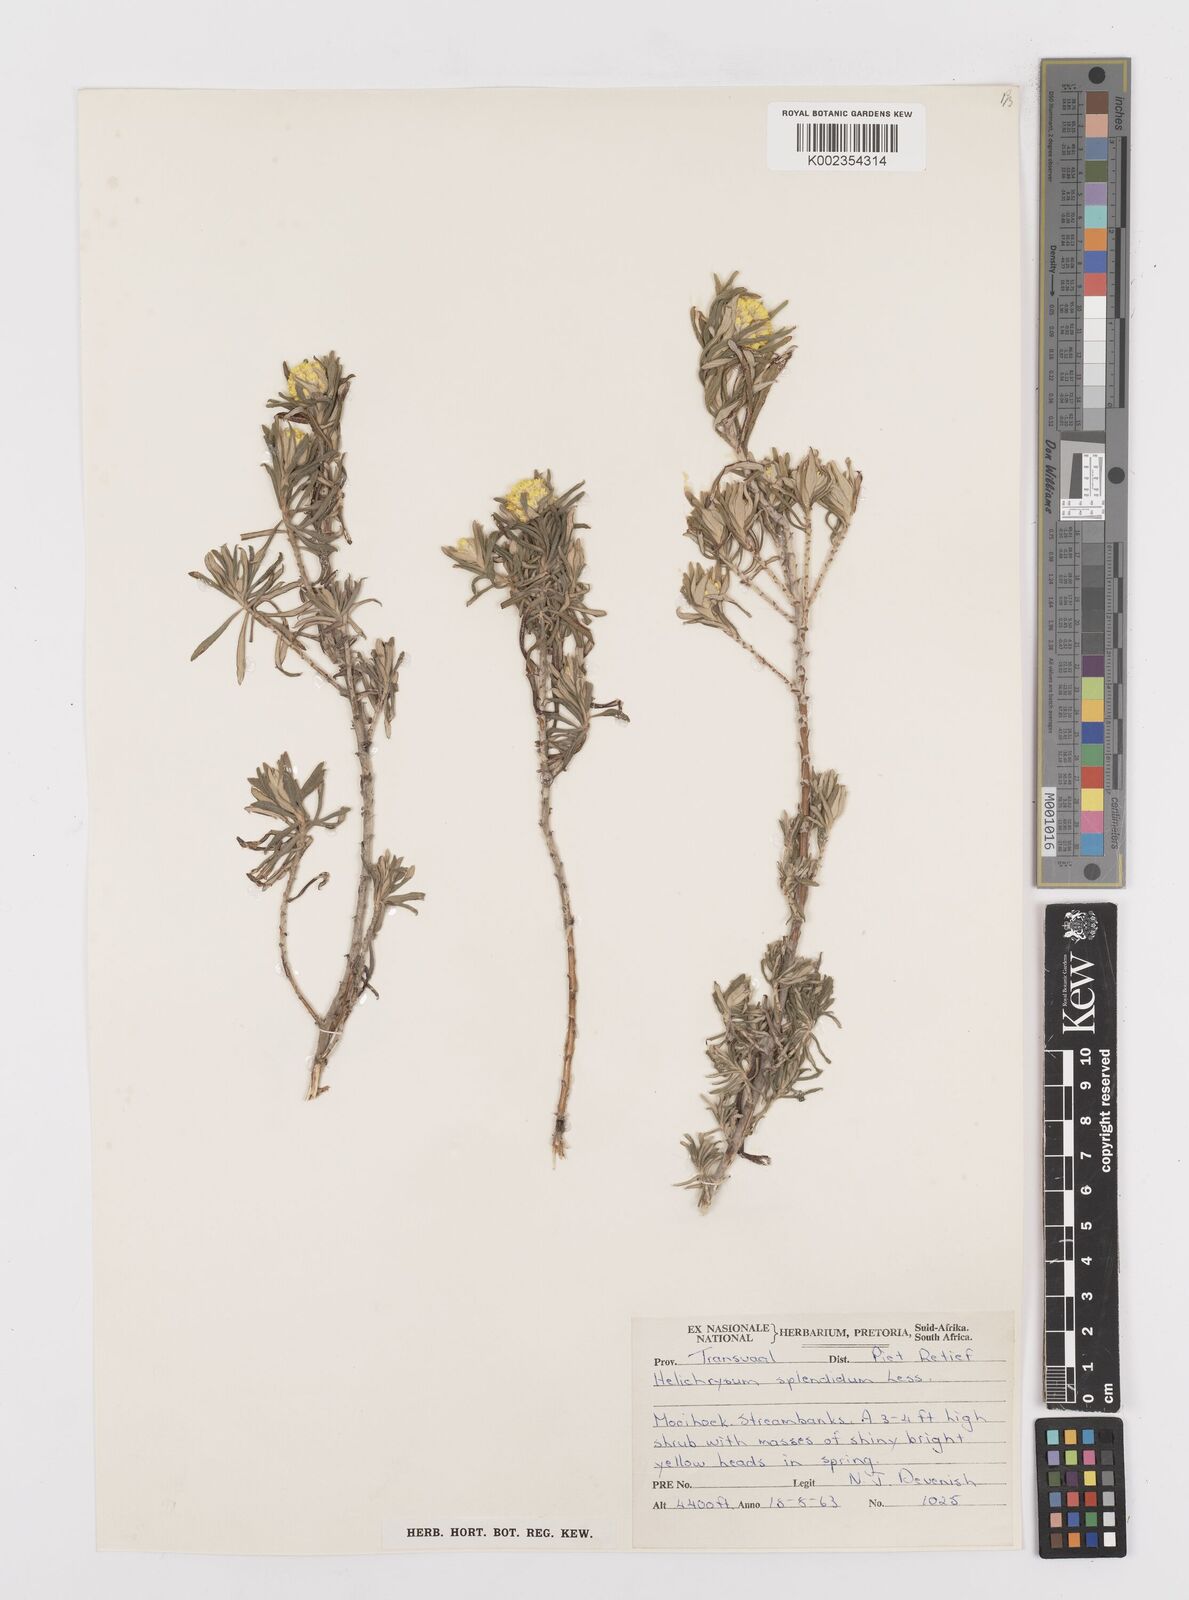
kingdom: Plantae
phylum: Tracheophyta
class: Magnoliopsida
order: Asterales
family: Asteraceae
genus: Helichrysum
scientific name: Helichrysum splendidum
